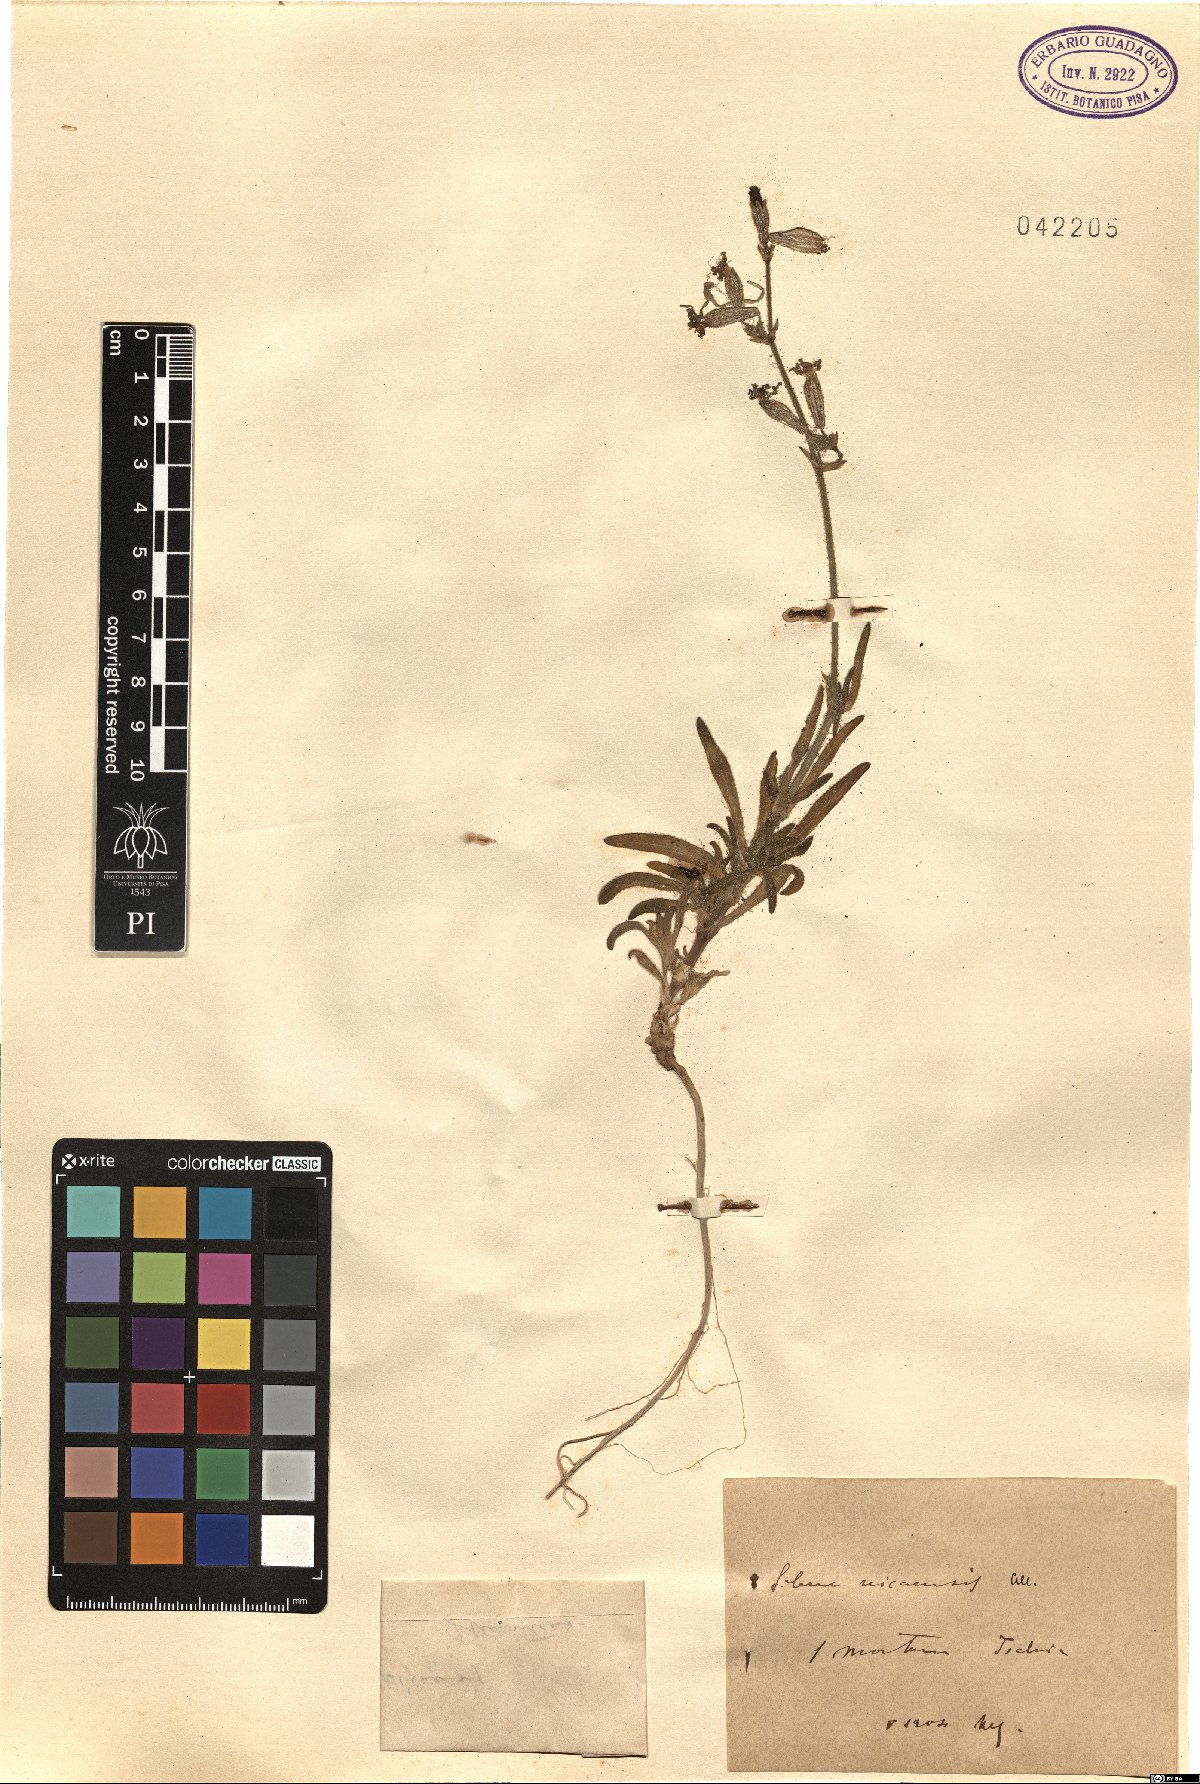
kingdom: Plantae
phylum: Tracheophyta
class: Magnoliopsida
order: Caryophyllales
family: Caryophyllaceae
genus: Silene
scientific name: Silene nicaeensis
